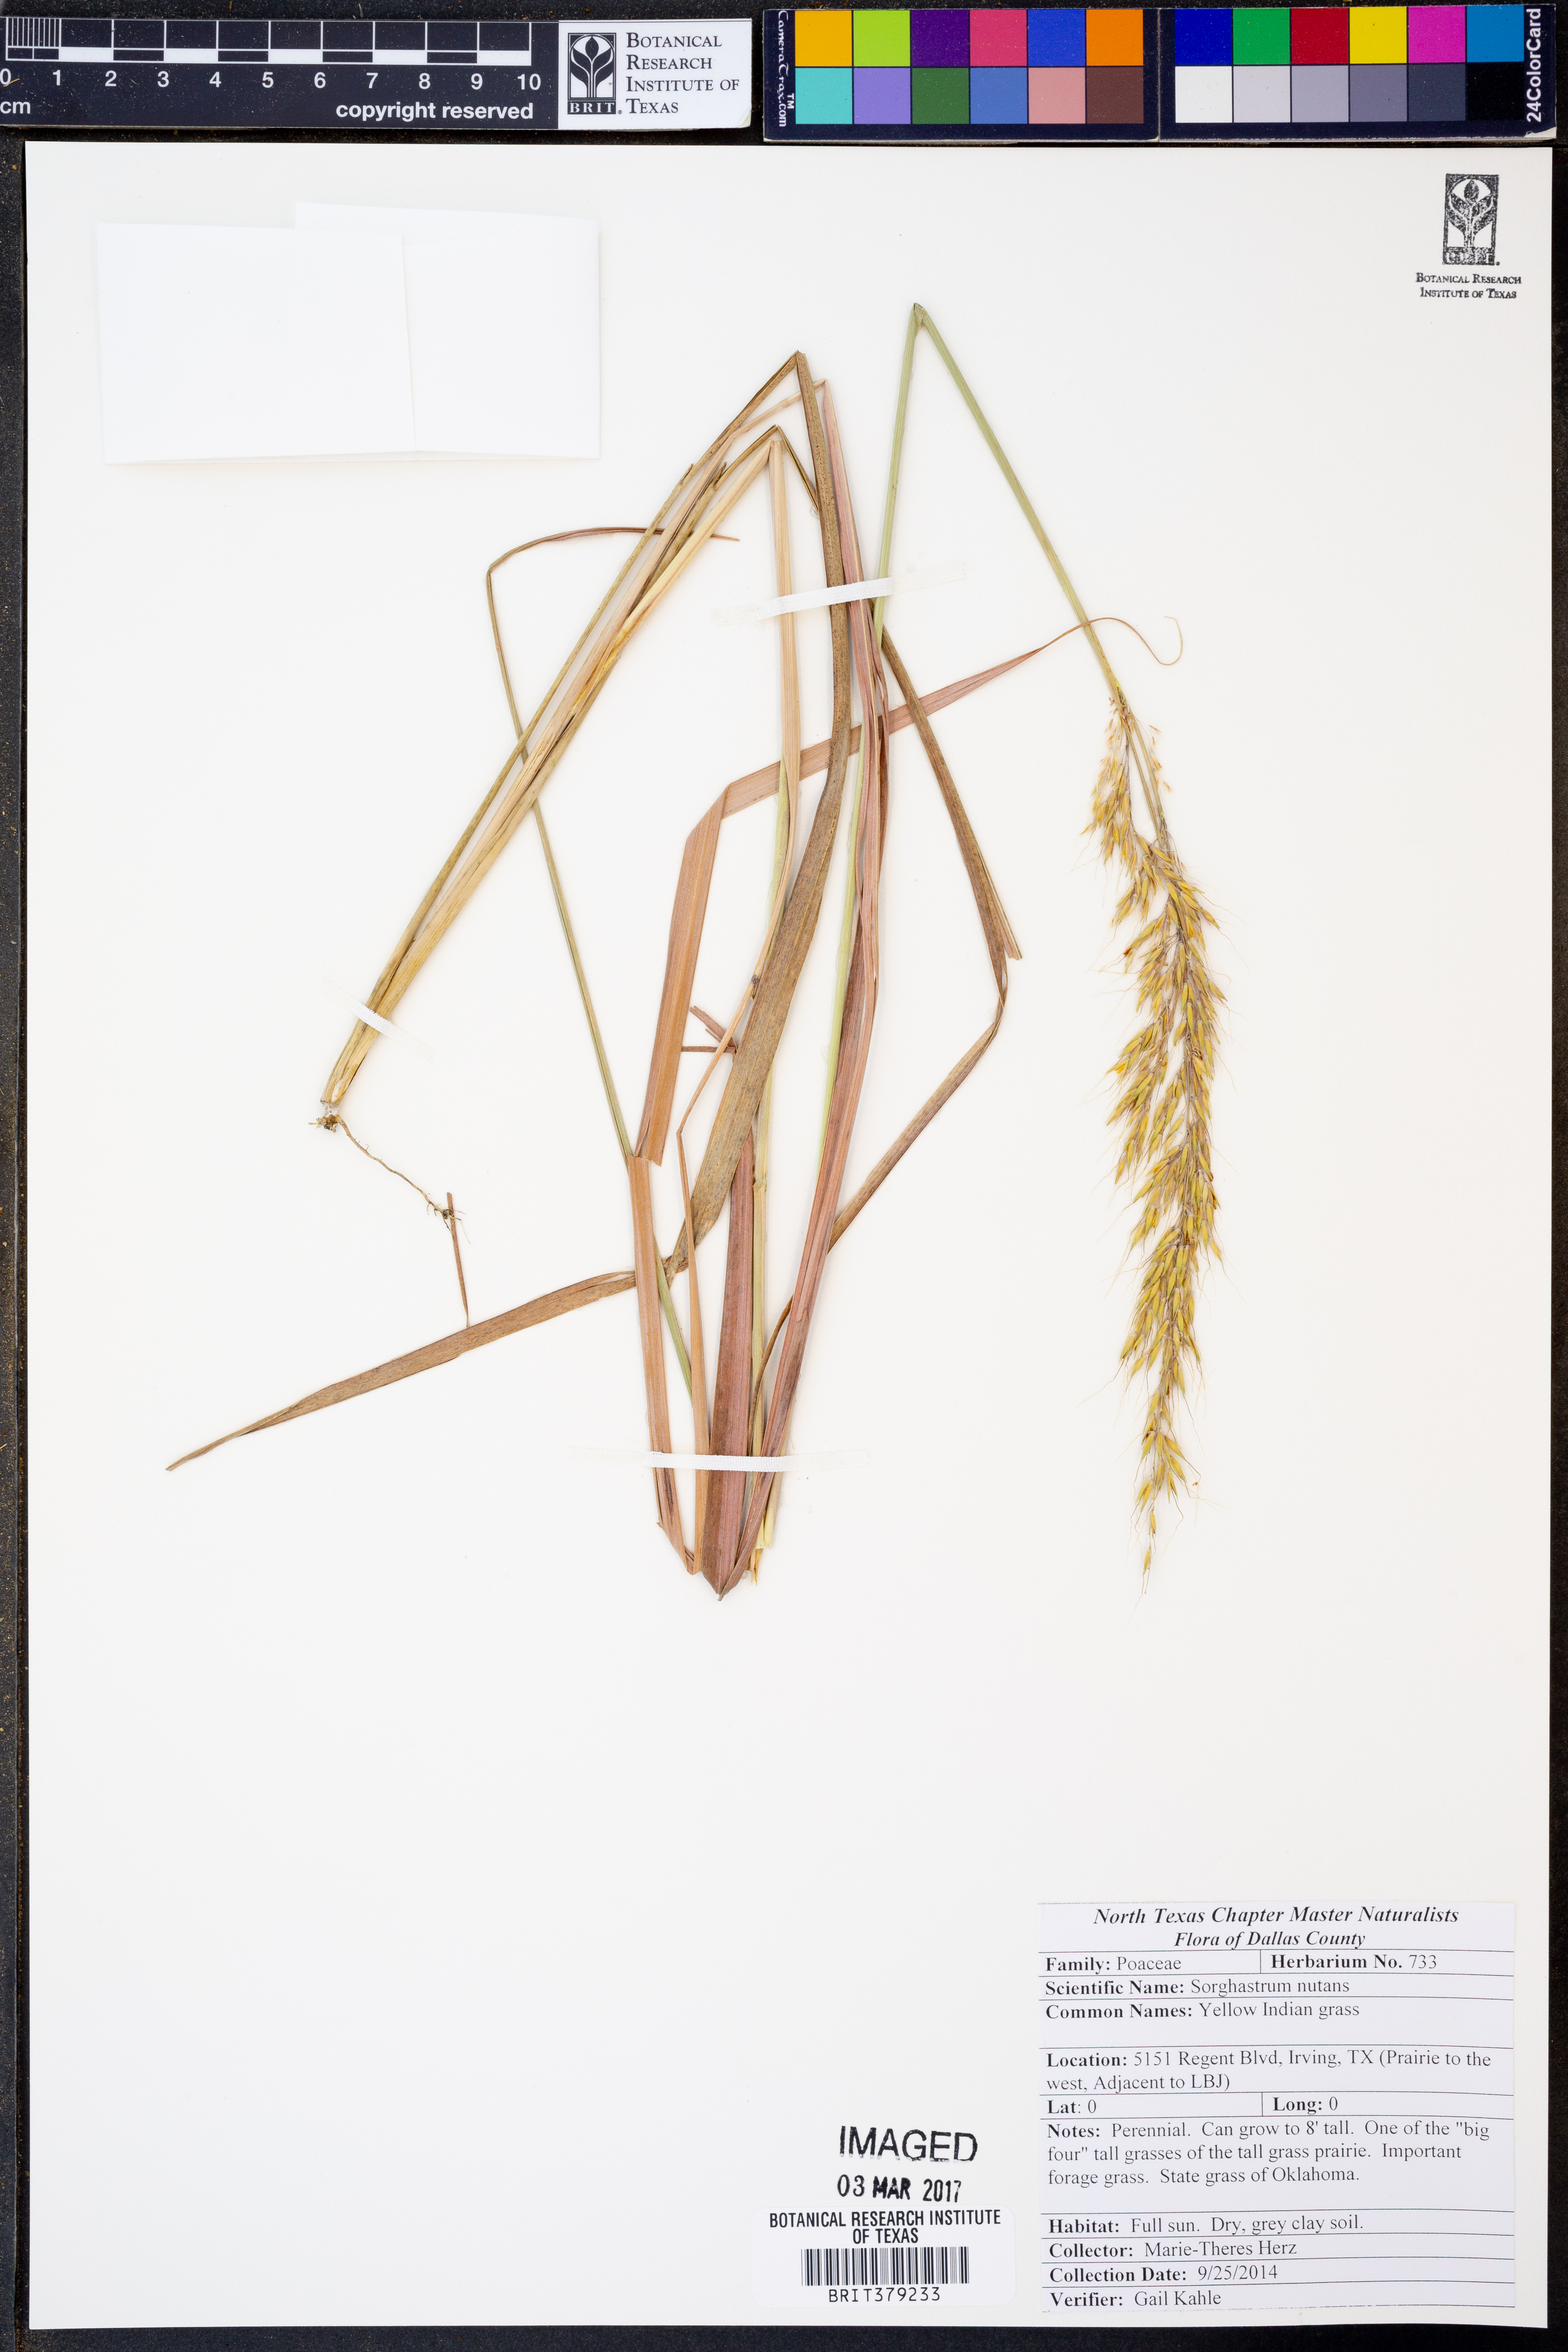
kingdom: Plantae
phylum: Tracheophyta
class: Liliopsida
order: Poales
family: Poaceae
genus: Sorghastrum
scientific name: Sorghastrum nutans
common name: Indian grass
